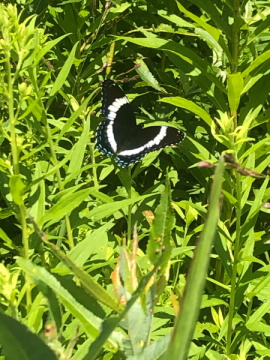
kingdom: Animalia
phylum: Arthropoda
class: Insecta
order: Lepidoptera
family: Nymphalidae
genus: Limenitis
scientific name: Limenitis arthemis
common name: Red-spotted Admiral
